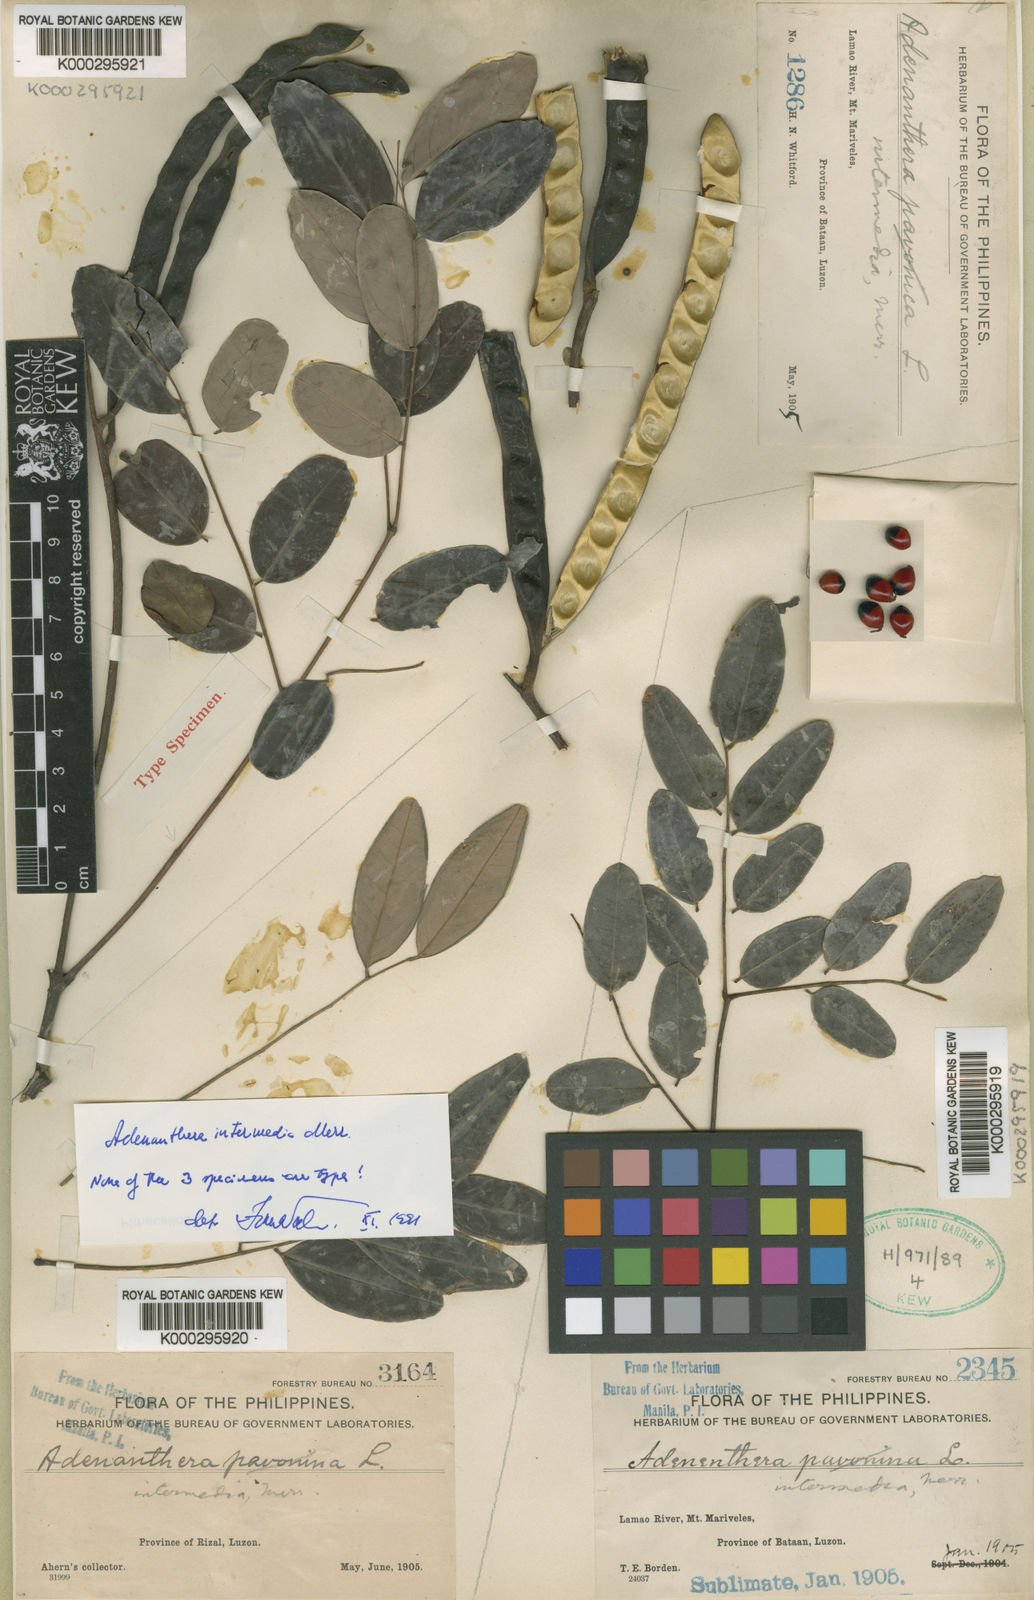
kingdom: Plantae
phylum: Tracheophyta
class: Magnoliopsida
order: Fabales
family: Fabaceae
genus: Adenanthera
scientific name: Adenanthera intermedia
